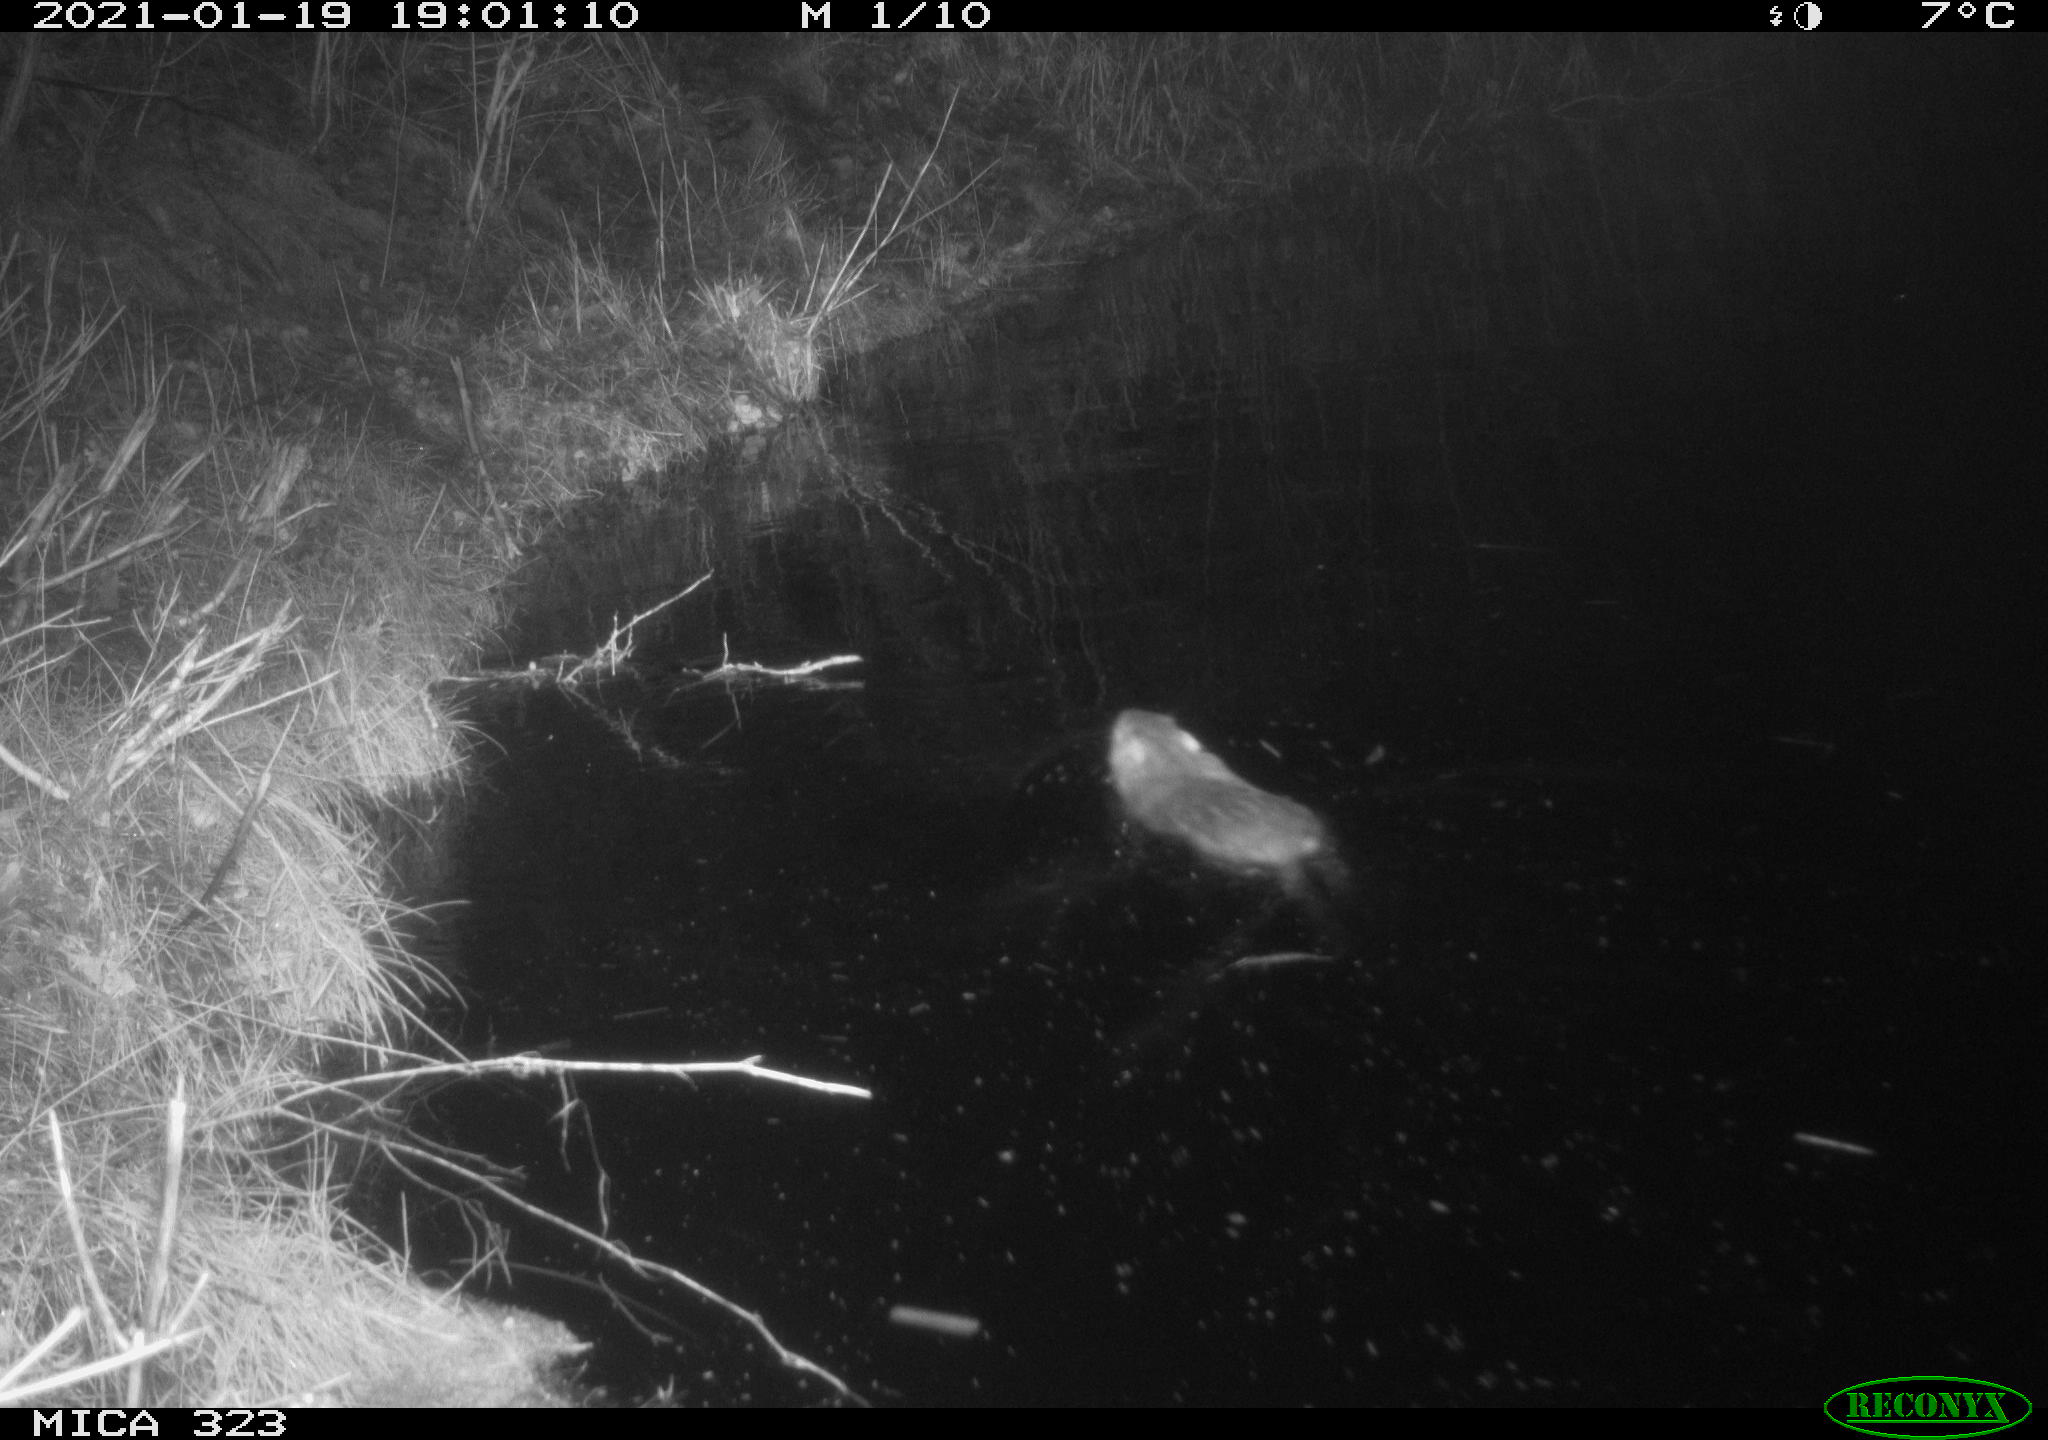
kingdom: Animalia
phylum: Chordata
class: Mammalia
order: Rodentia
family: Myocastoridae
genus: Myocastor
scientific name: Myocastor coypus
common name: Coypu
